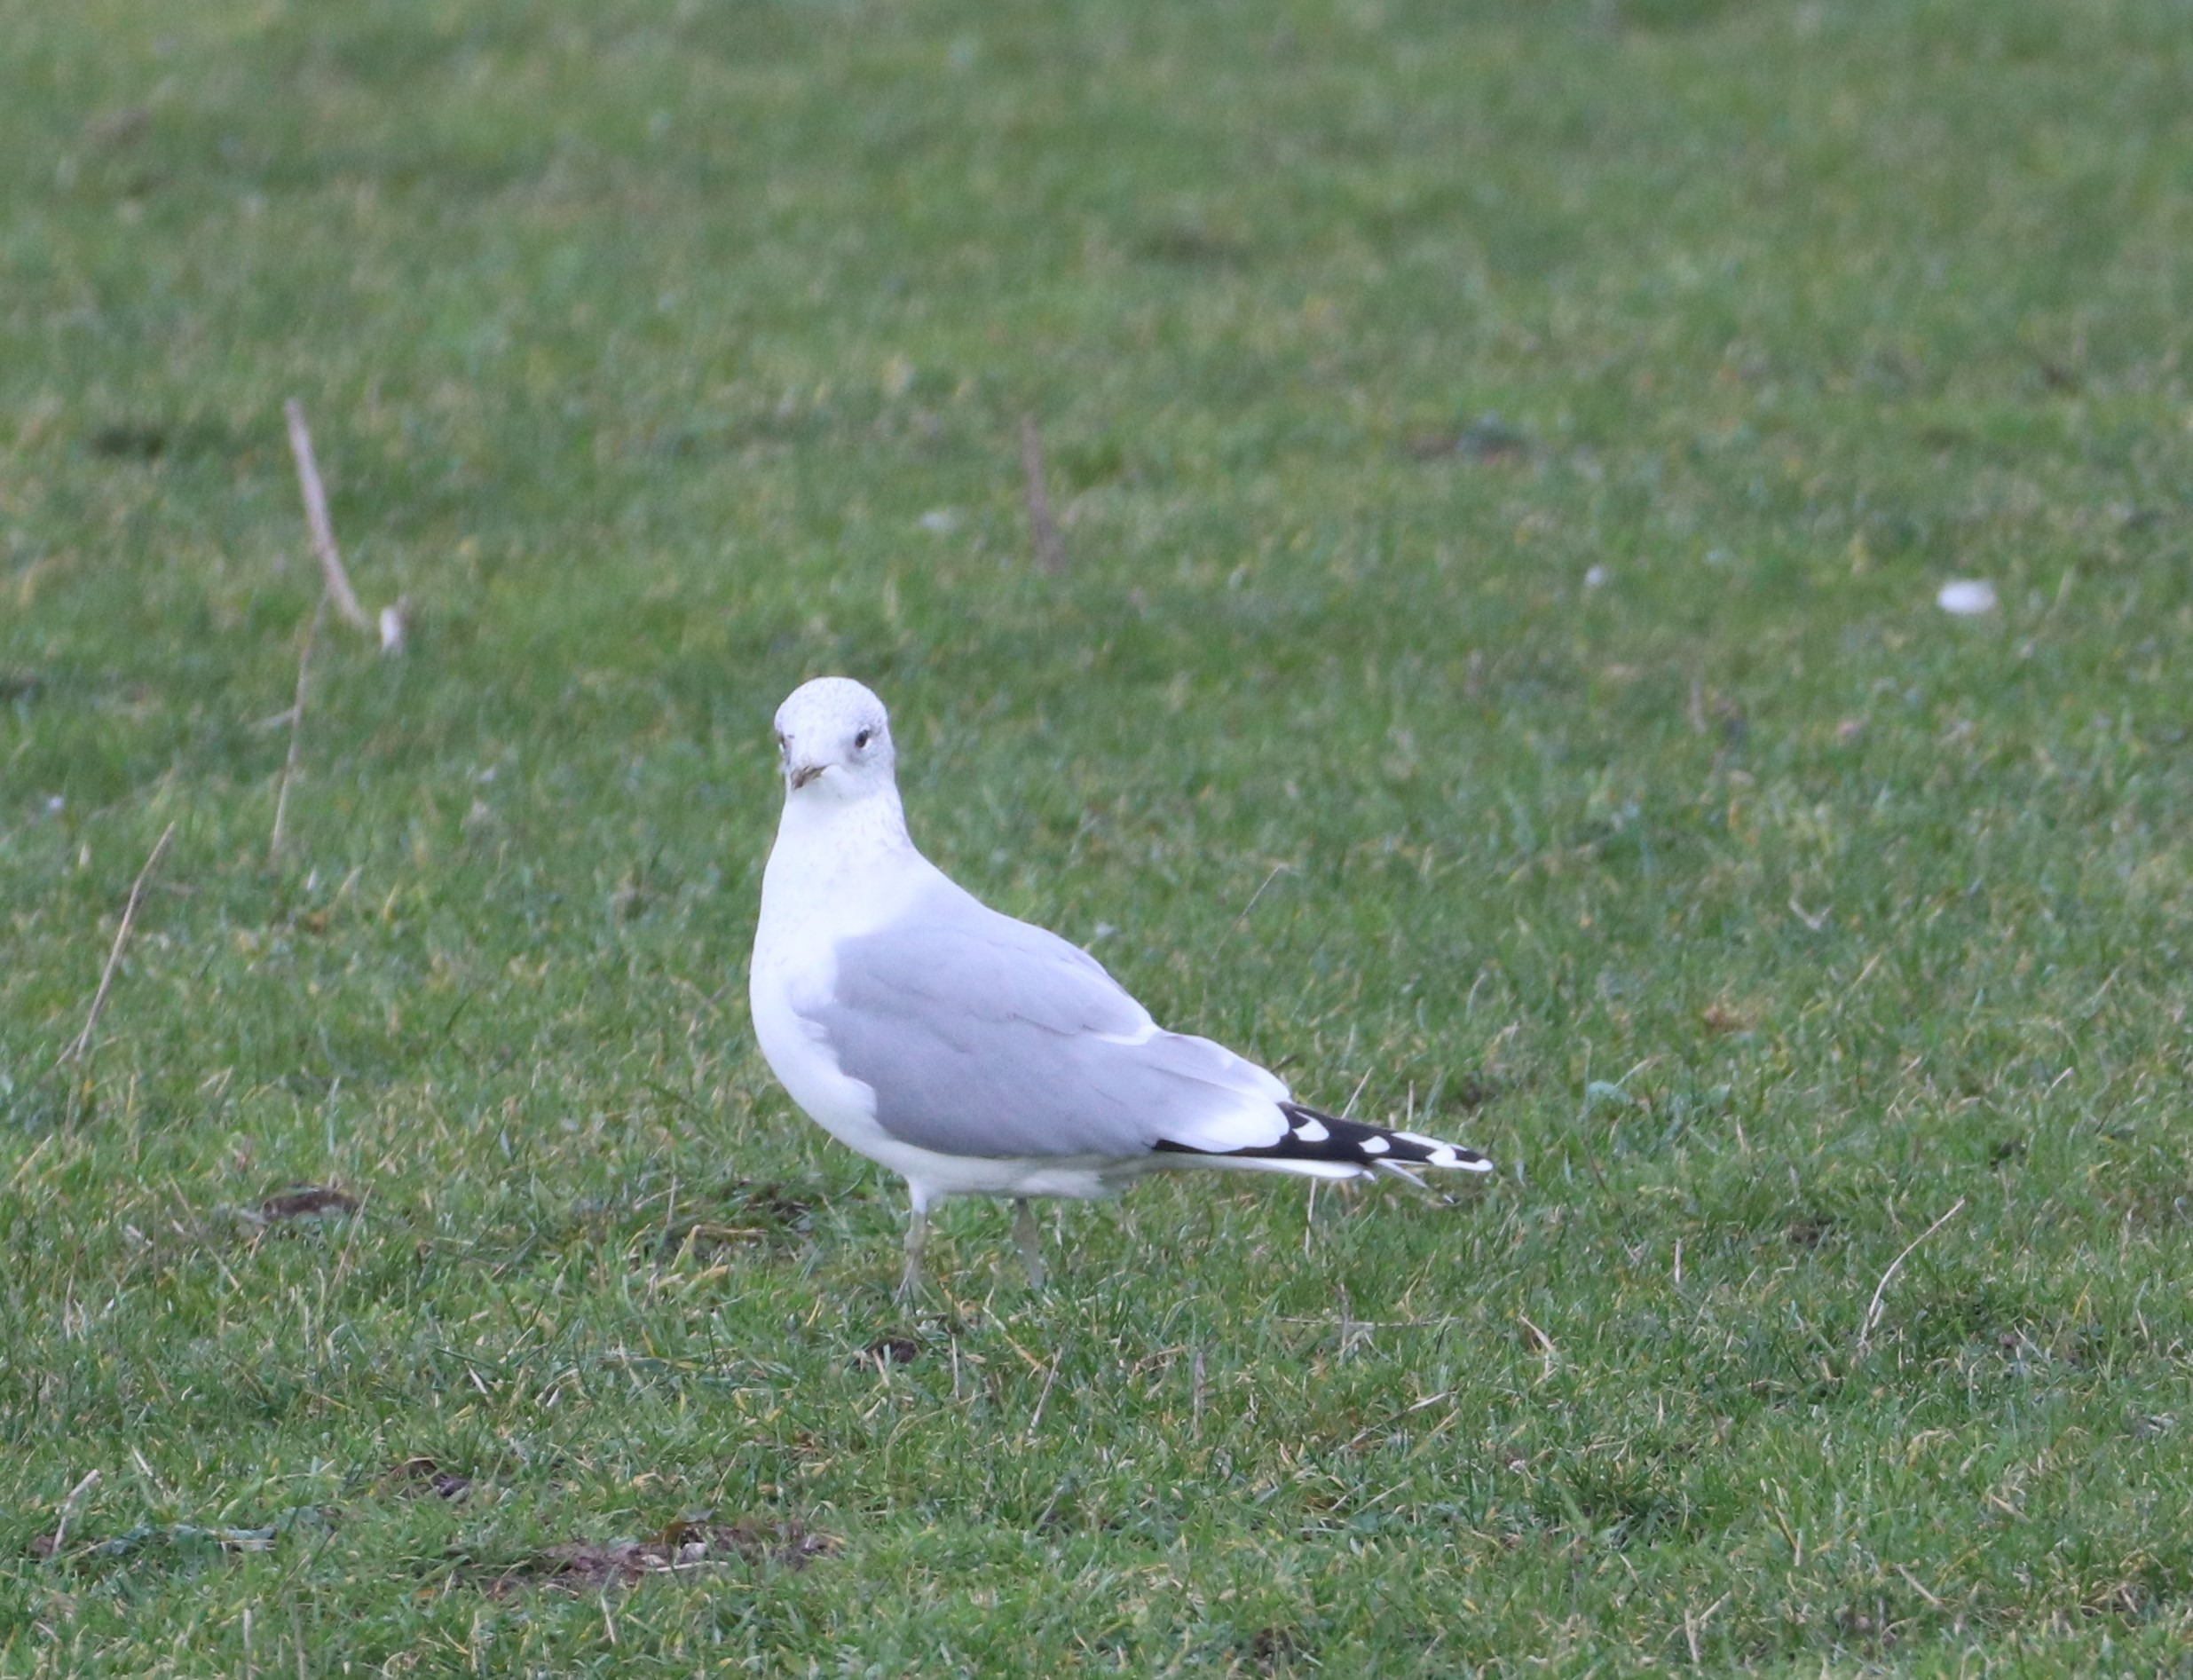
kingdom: Animalia
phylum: Chordata
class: Aves
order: Charadriiformes
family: Laridae
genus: Larus
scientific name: Larus canus
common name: Stormmåge
